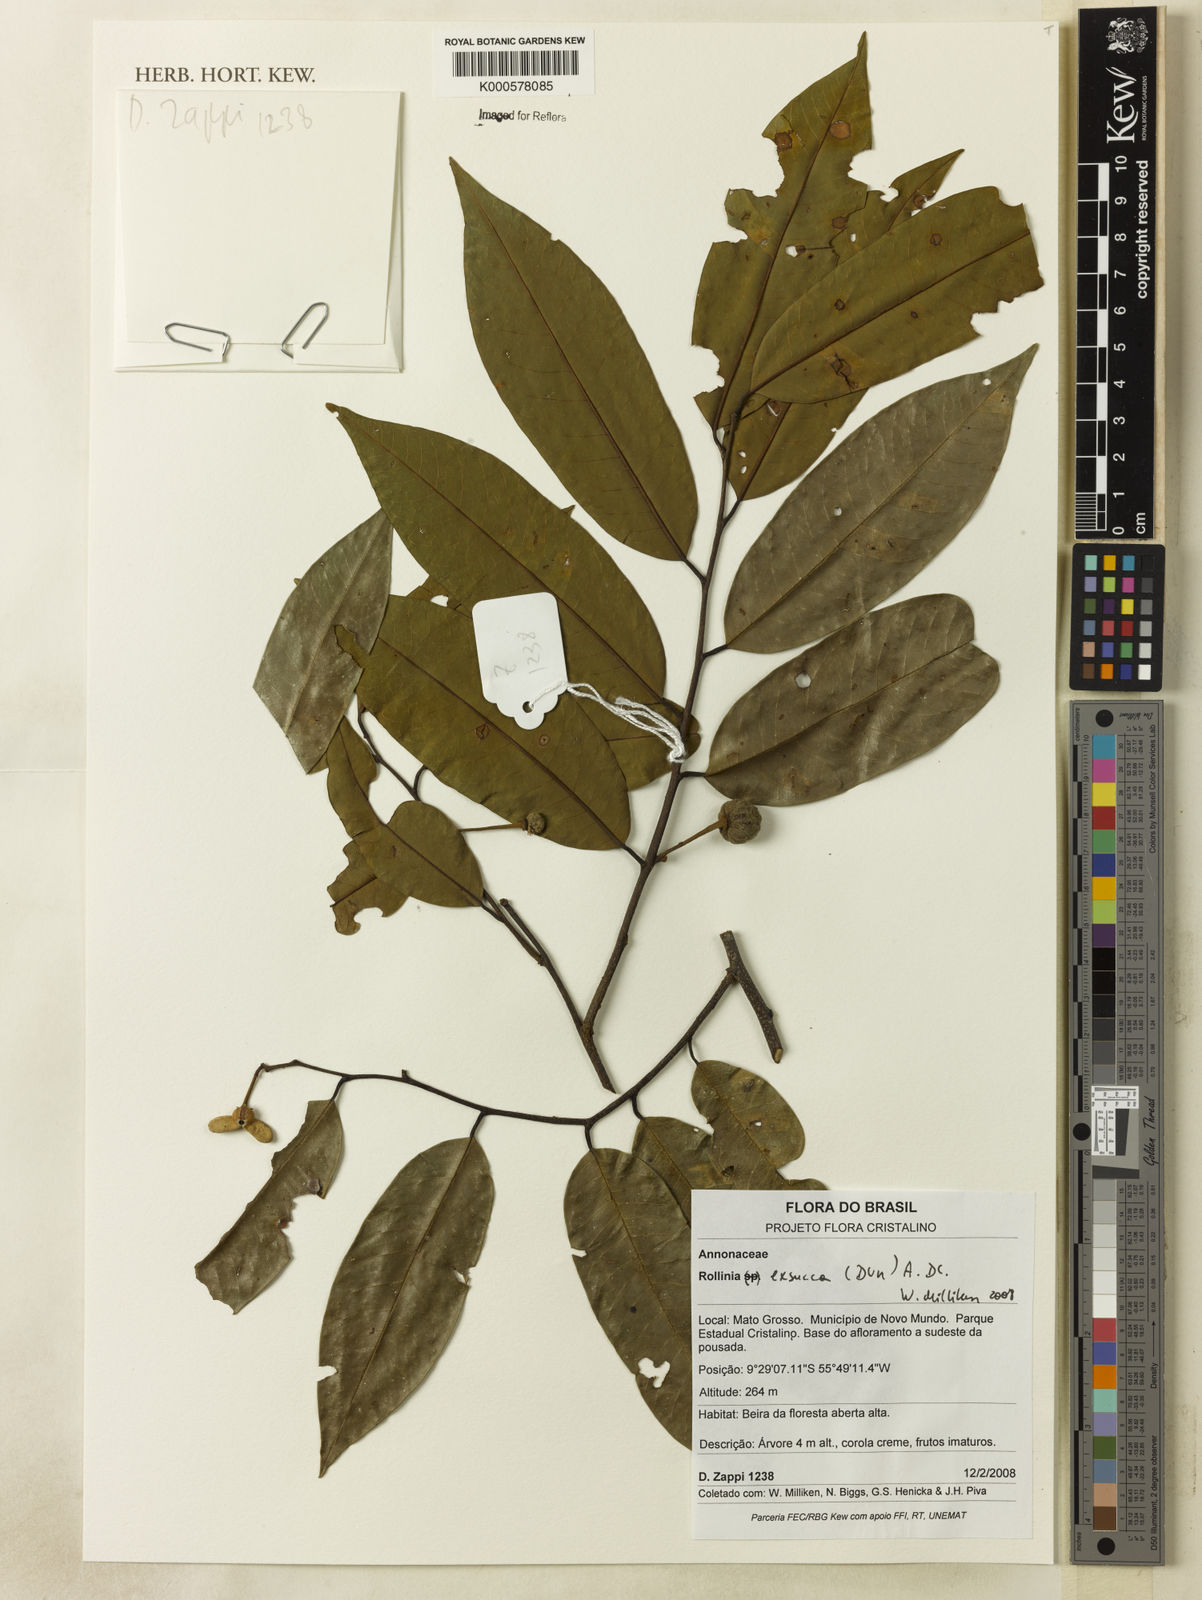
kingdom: Plantae
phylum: Tracheophyta
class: Magnoliopsida
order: Magnoliales
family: Annonaceae
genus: Annona
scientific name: Annona exsucca
